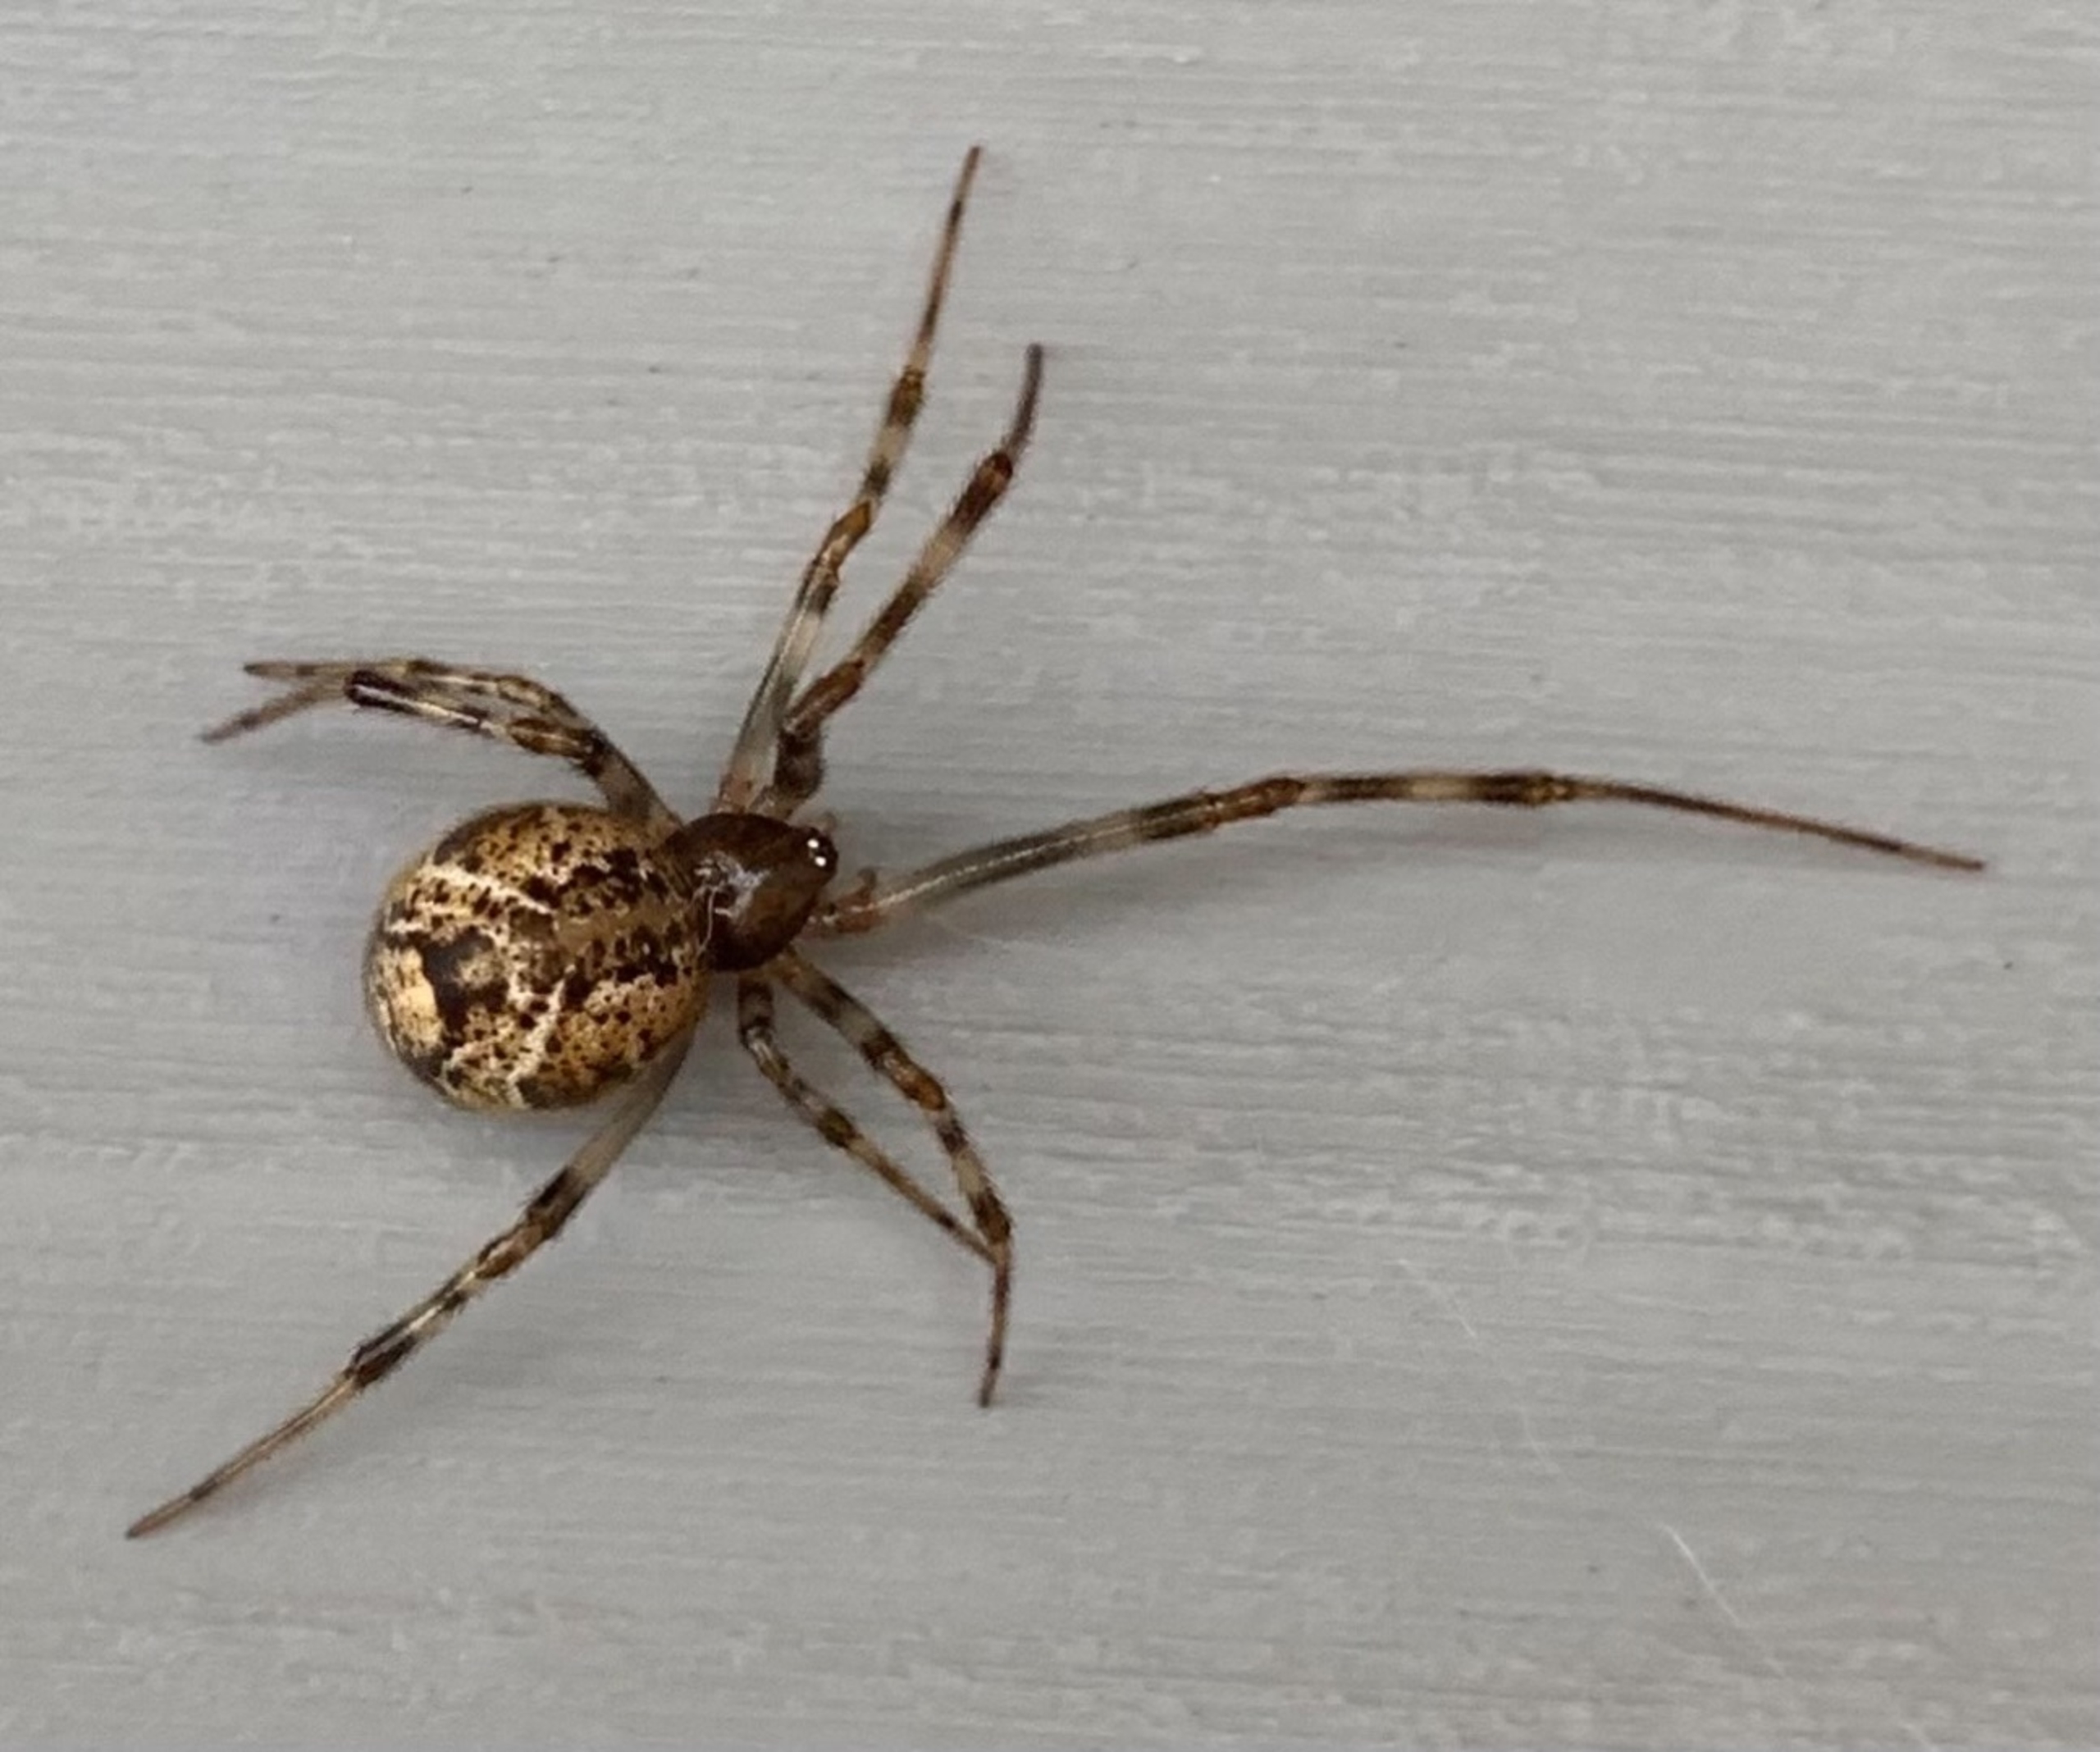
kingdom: Animalia
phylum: Arthropoda
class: Arachnida
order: Araneae
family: Theridiidae
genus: Parasteatoda
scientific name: Parasteatoda tepidariorum
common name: Væksthusspinder
